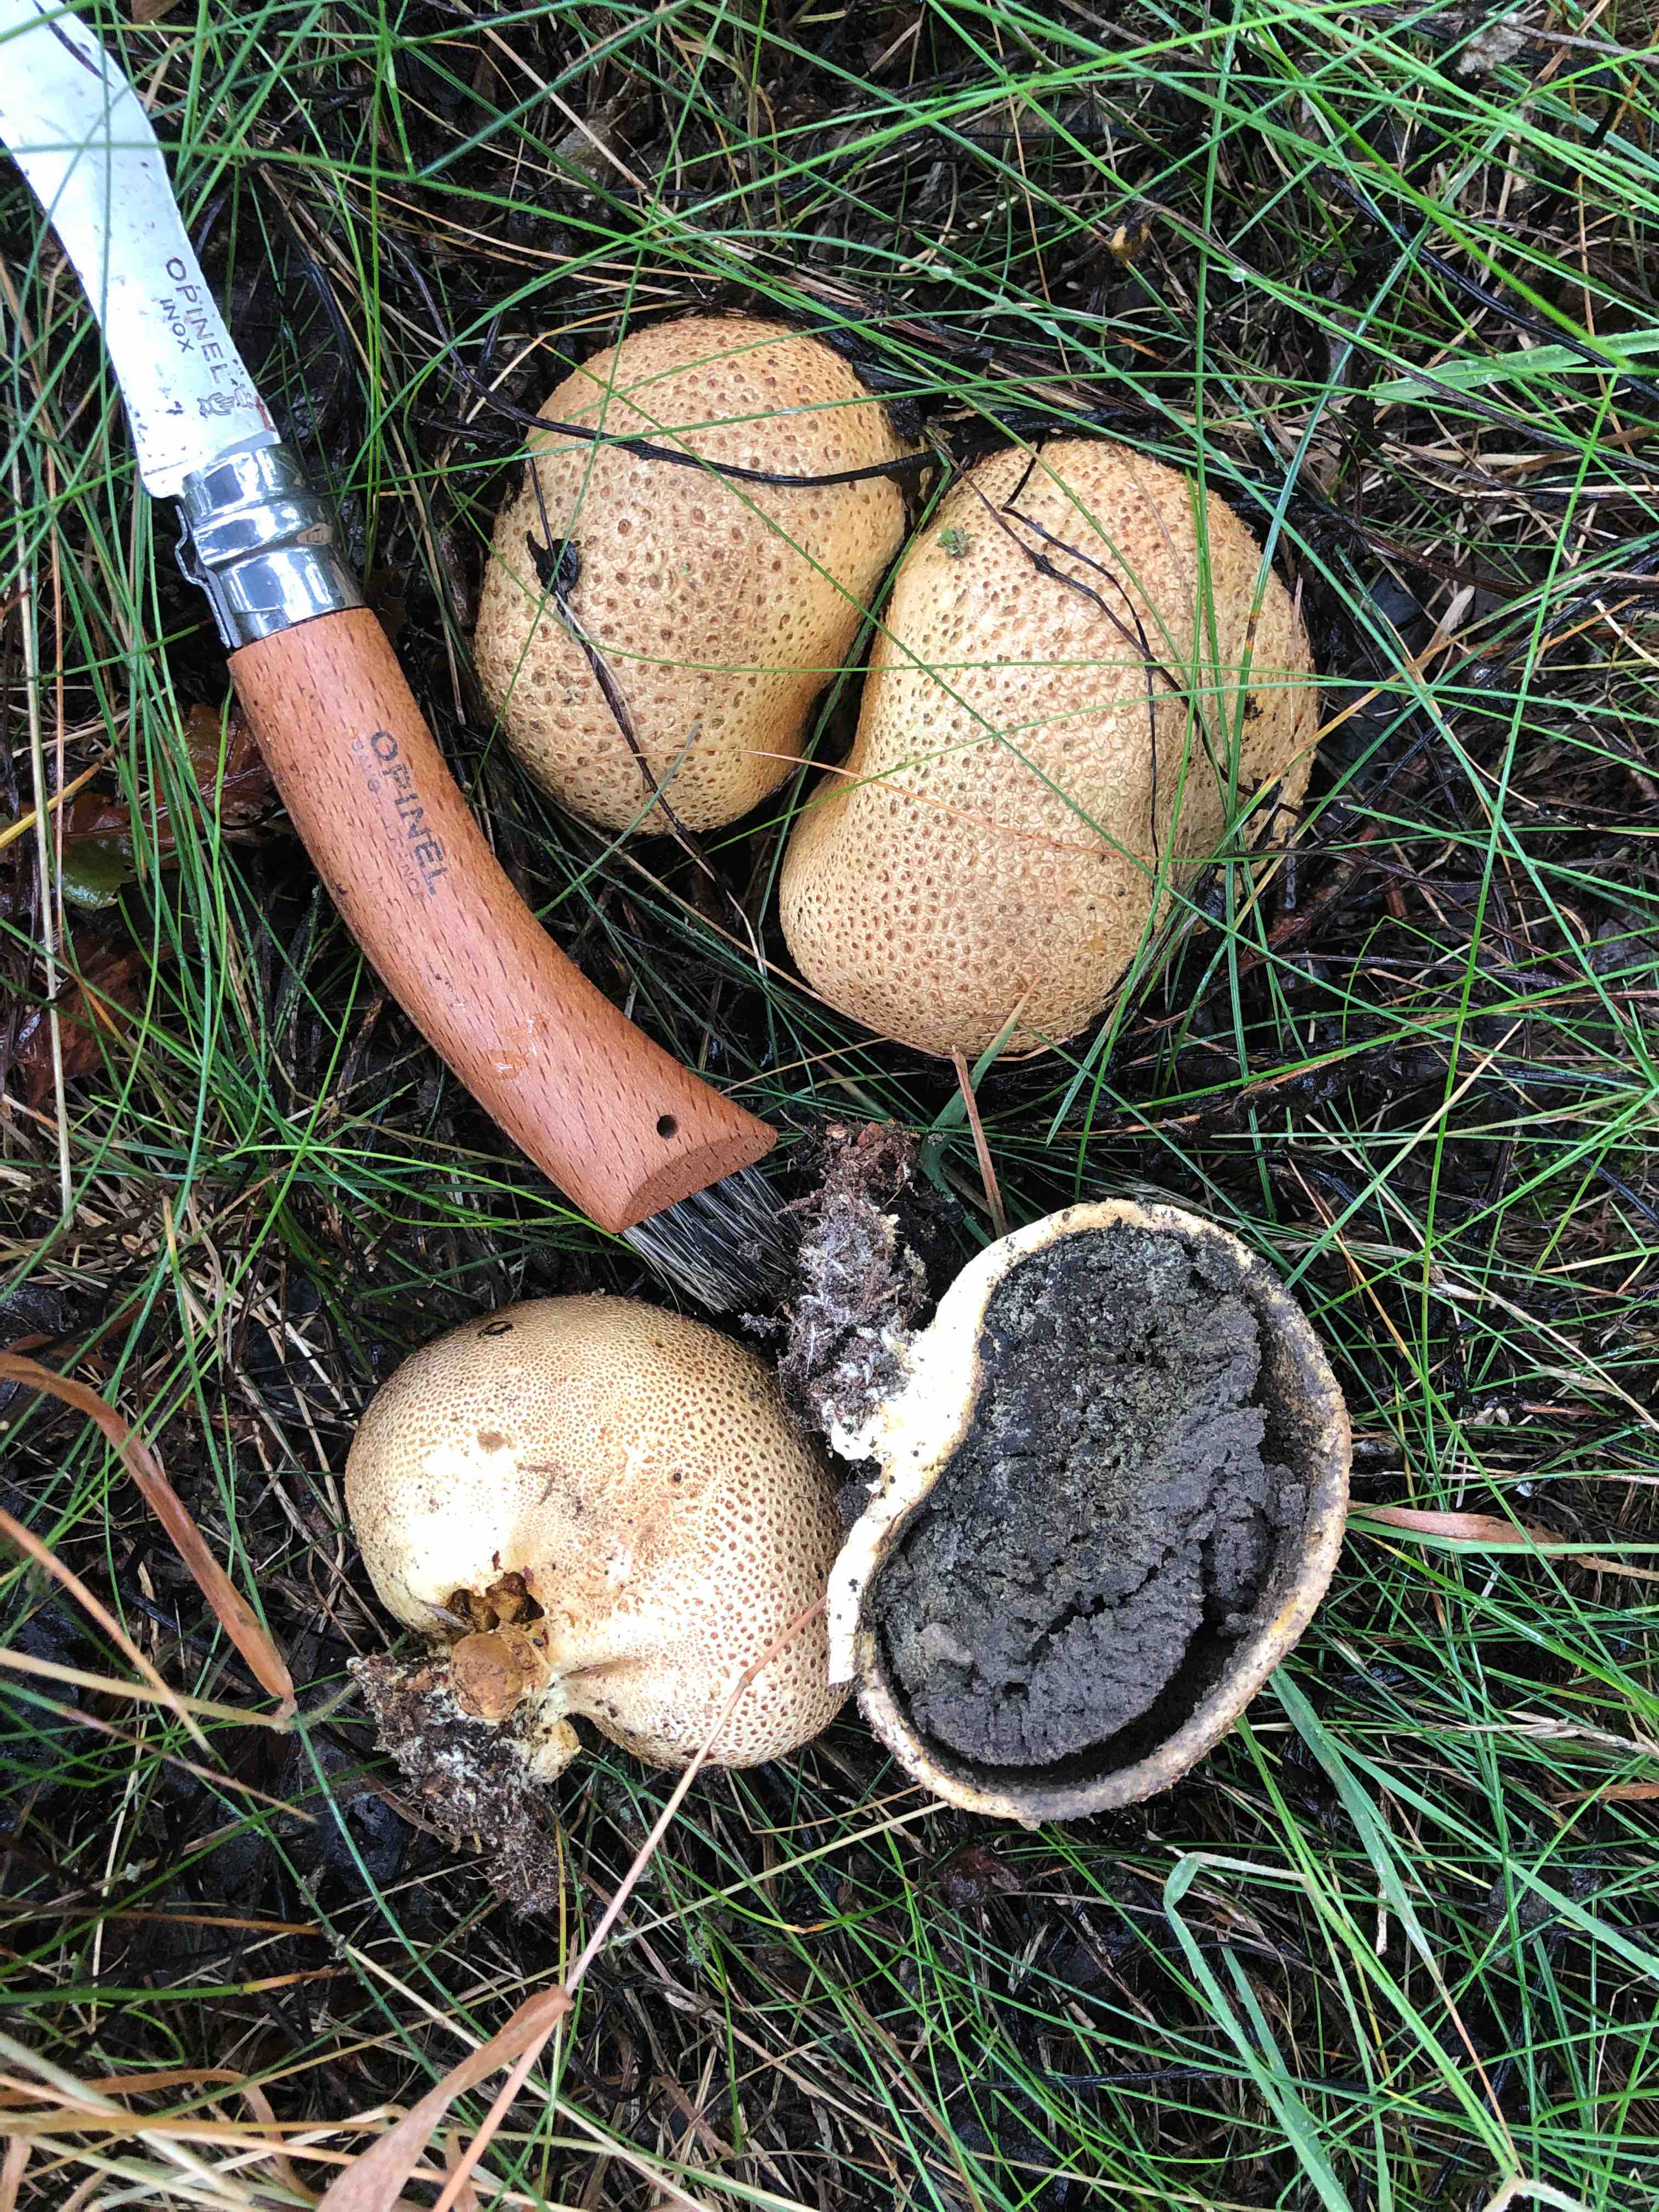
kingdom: Fungi
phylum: Basidiomycota
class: Agaricomycetes
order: Boletales
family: Sclerodermataceae
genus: Scleroderma
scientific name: Scleroderma citrinum
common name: almindelig bruskbold
